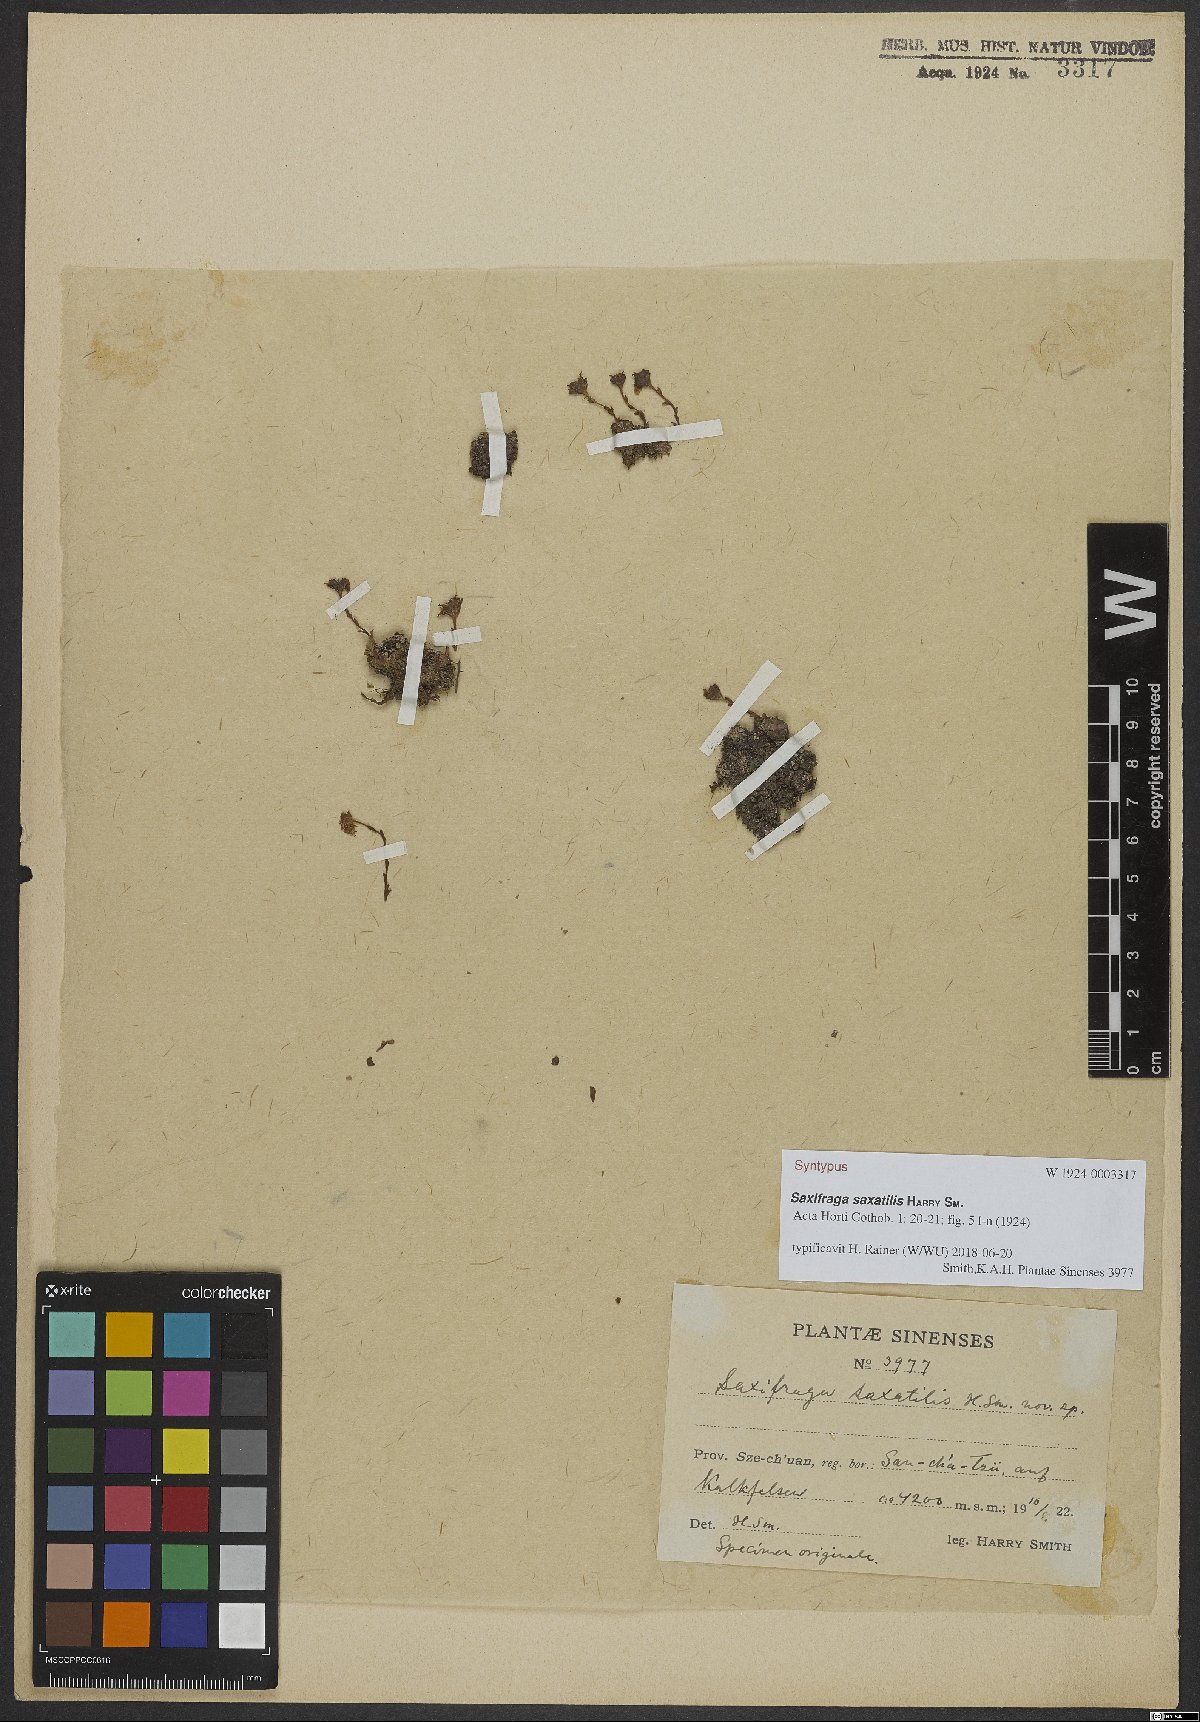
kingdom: Plantae
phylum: Tracheophyta
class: Magnoliopsida
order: Saxifragales
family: Saxifragaceae
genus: Saxifraga
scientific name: Saxifraga saxatilis
